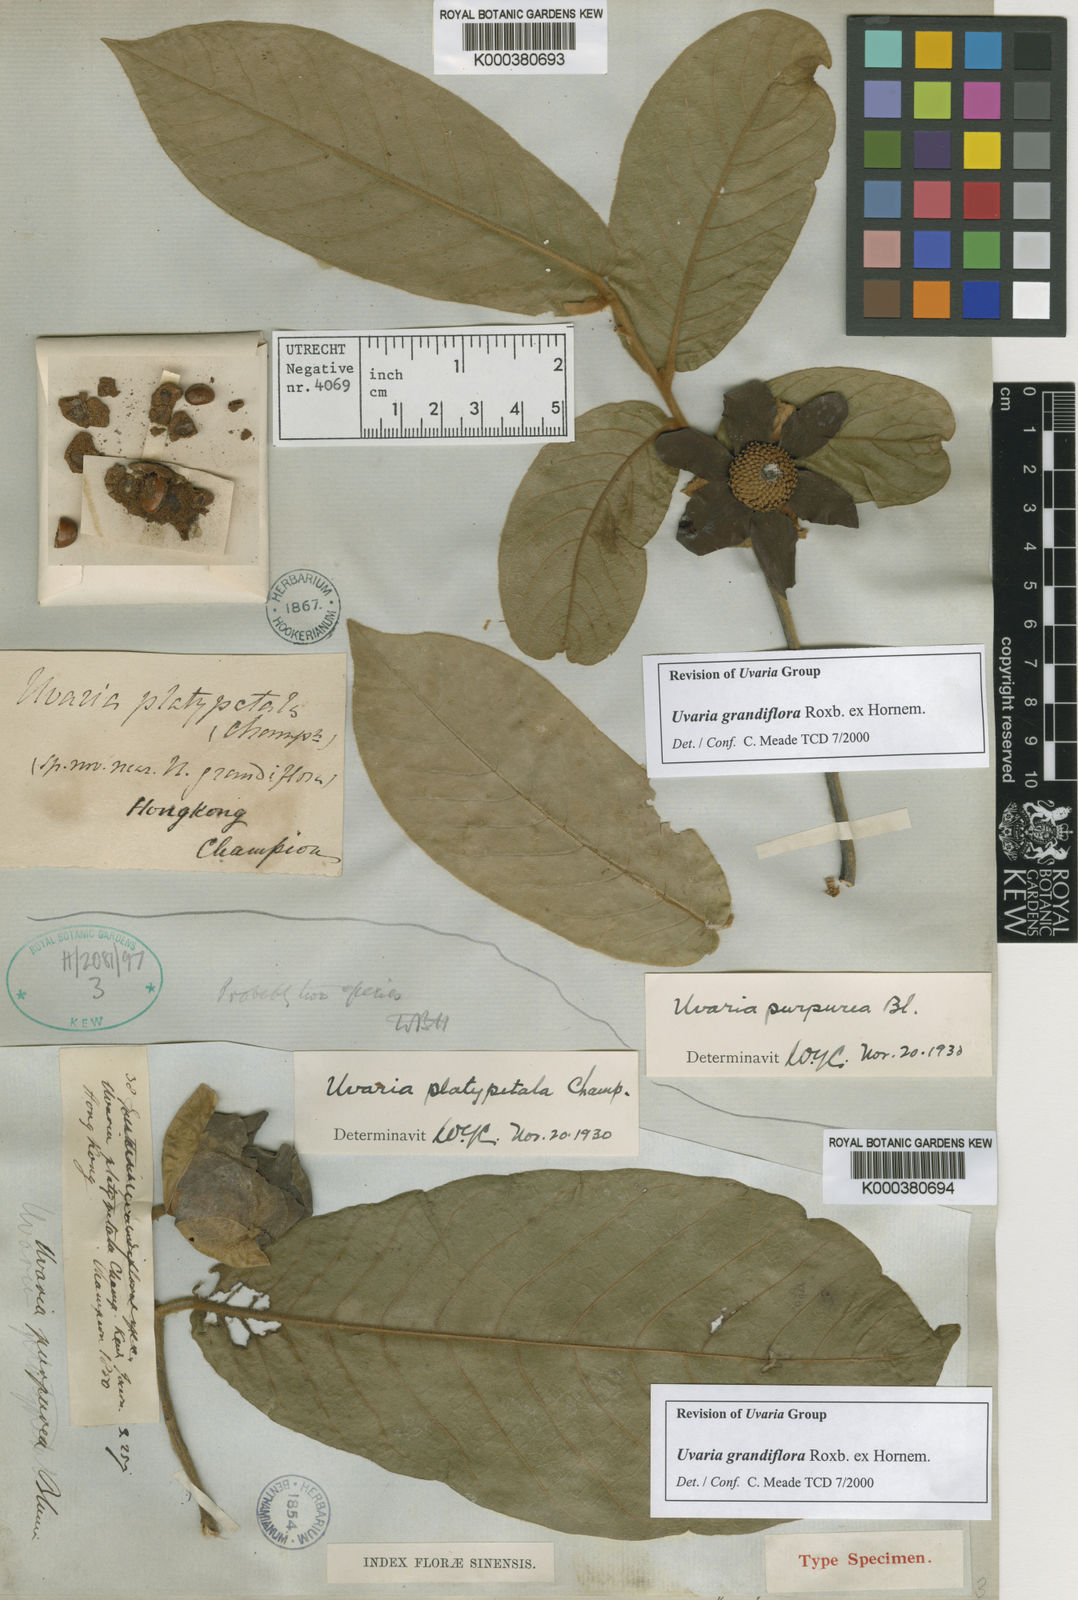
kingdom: Plantae
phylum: Tracheophyta
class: Magnoliopsida
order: Magnoliales
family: Annonaceae
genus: Uvaria
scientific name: Uvaria
